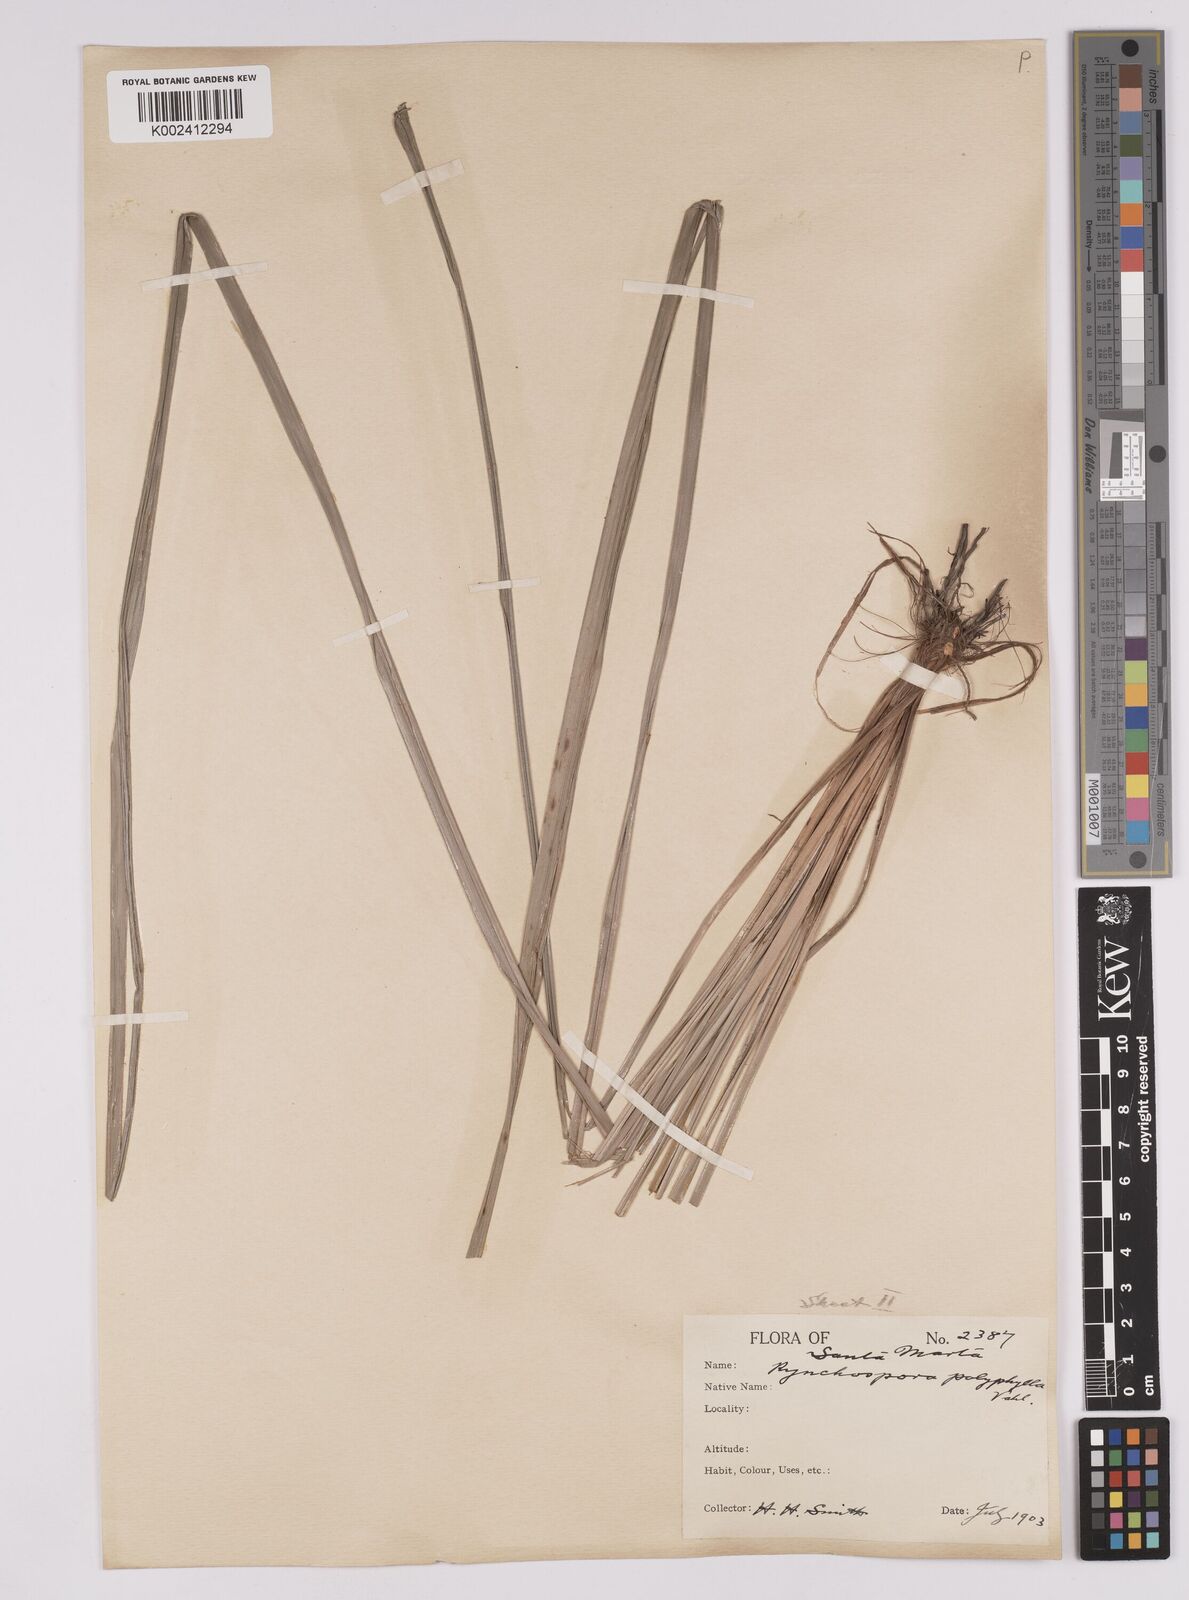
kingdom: Plantae
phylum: Tracheophyta
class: Liliopsida
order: Poales
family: Cyperaceae
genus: Rhynchospora
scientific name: Rhynchospora polyphylla
